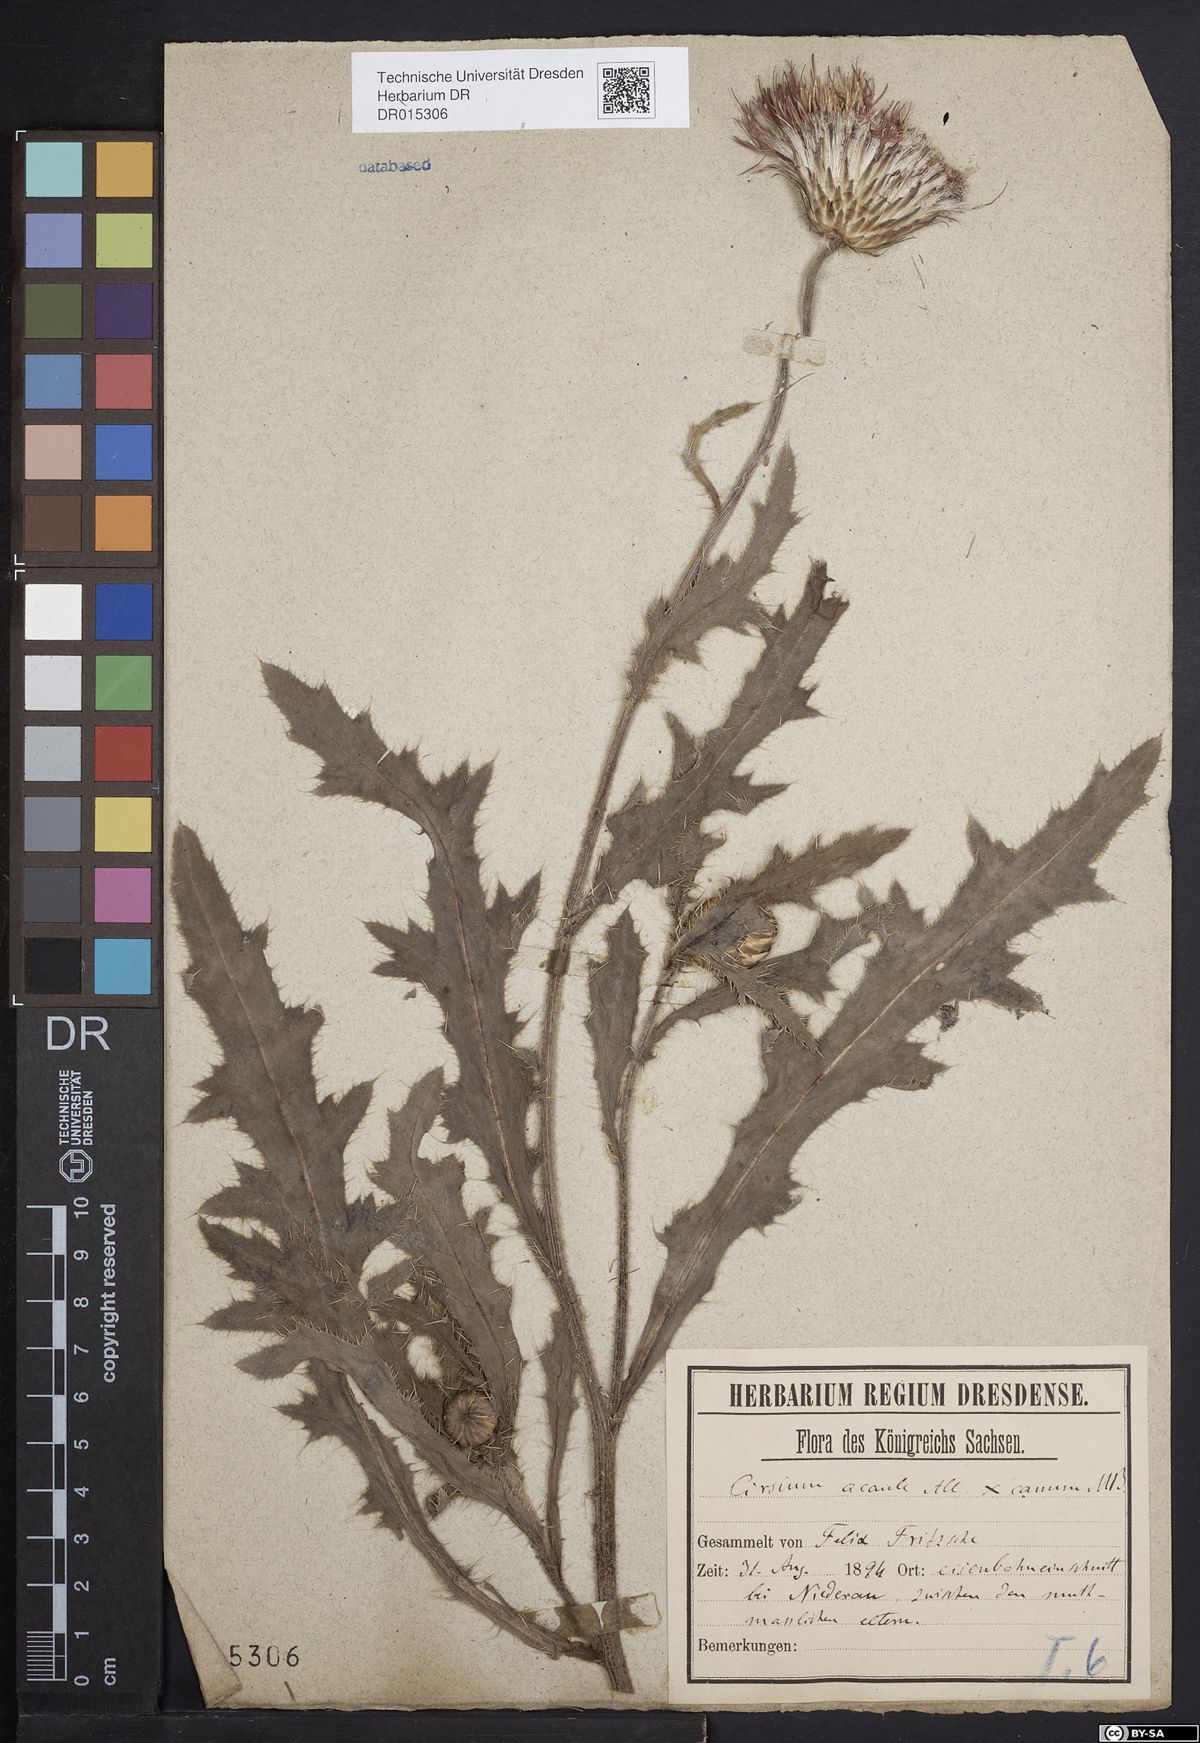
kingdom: Plantae
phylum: Tracheophyta
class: Magnoliopsida
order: Asterales
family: Asteraceae
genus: Cirsium
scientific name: Cirsium winklerianum
